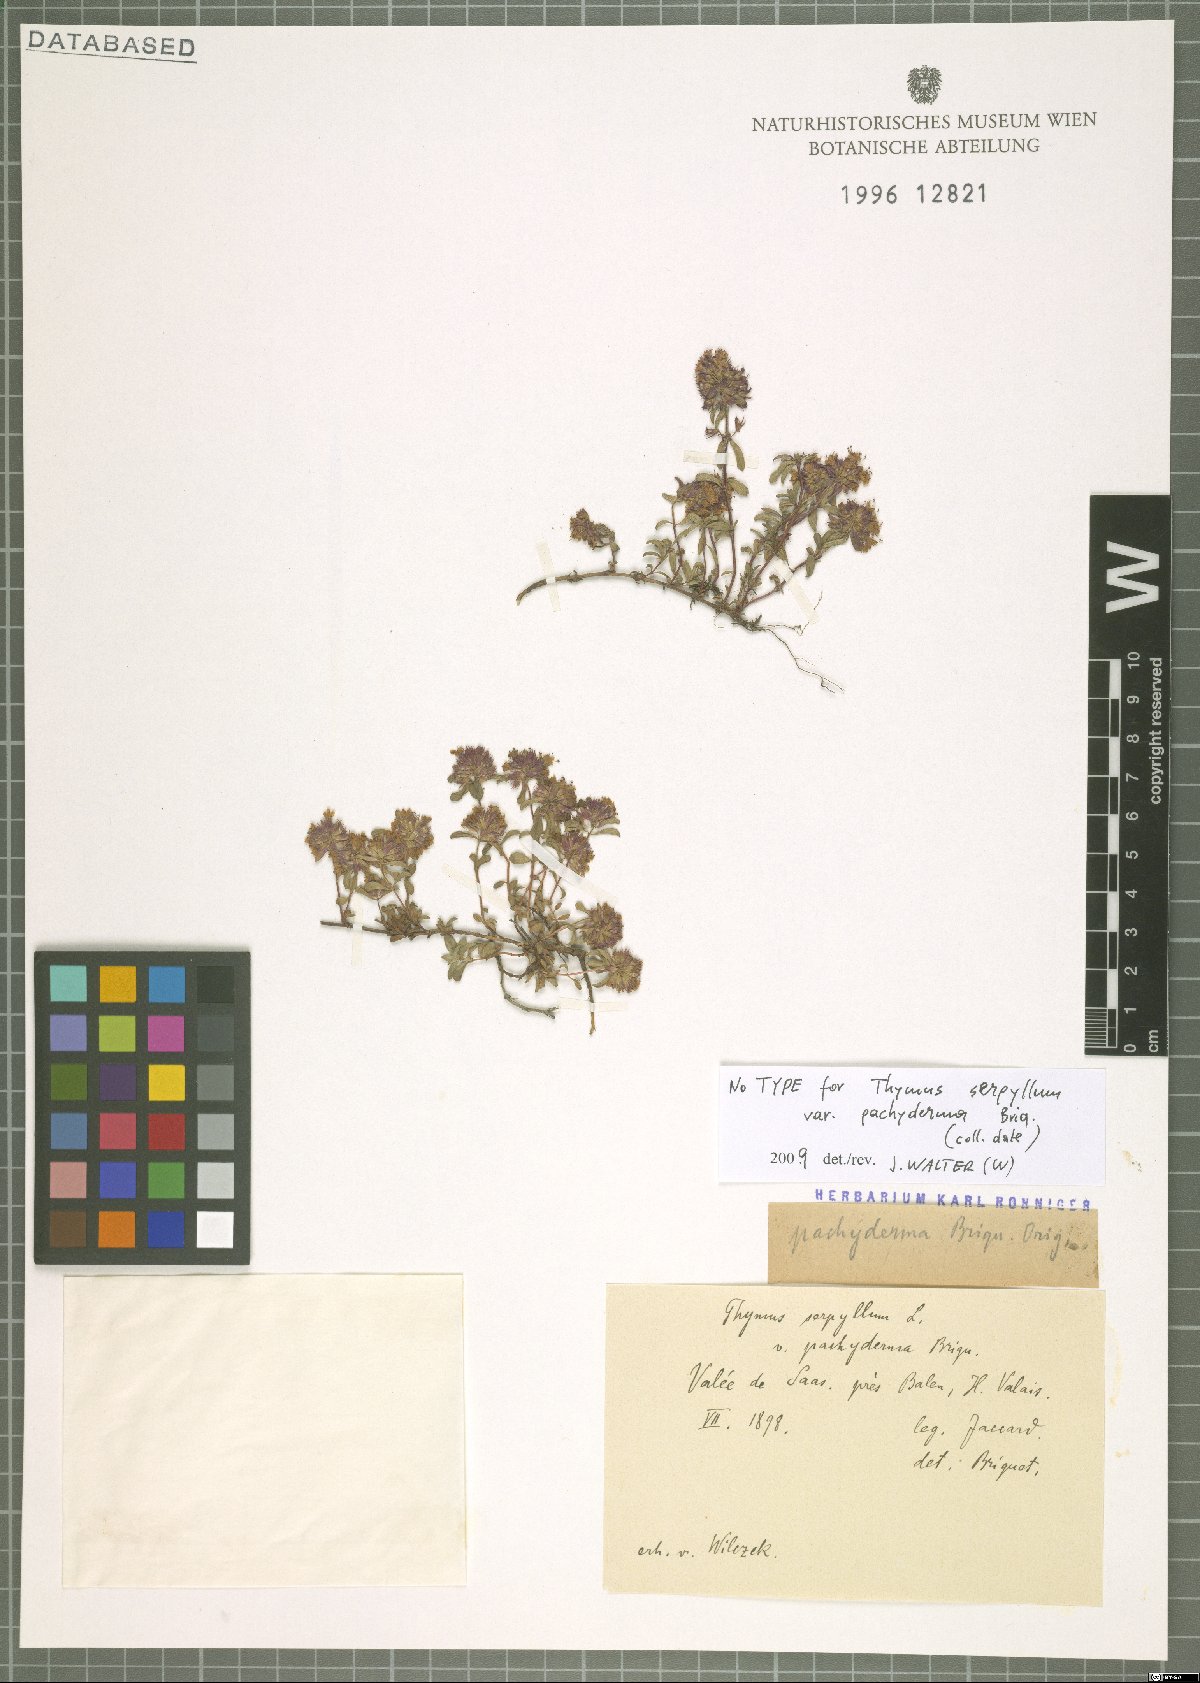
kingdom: Plantae
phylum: Tracheophyta
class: Magnoliopsida
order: Lamiales
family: Lamiaceae
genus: Thymus
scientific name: Thymus serpyllum
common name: Breckland thyme
